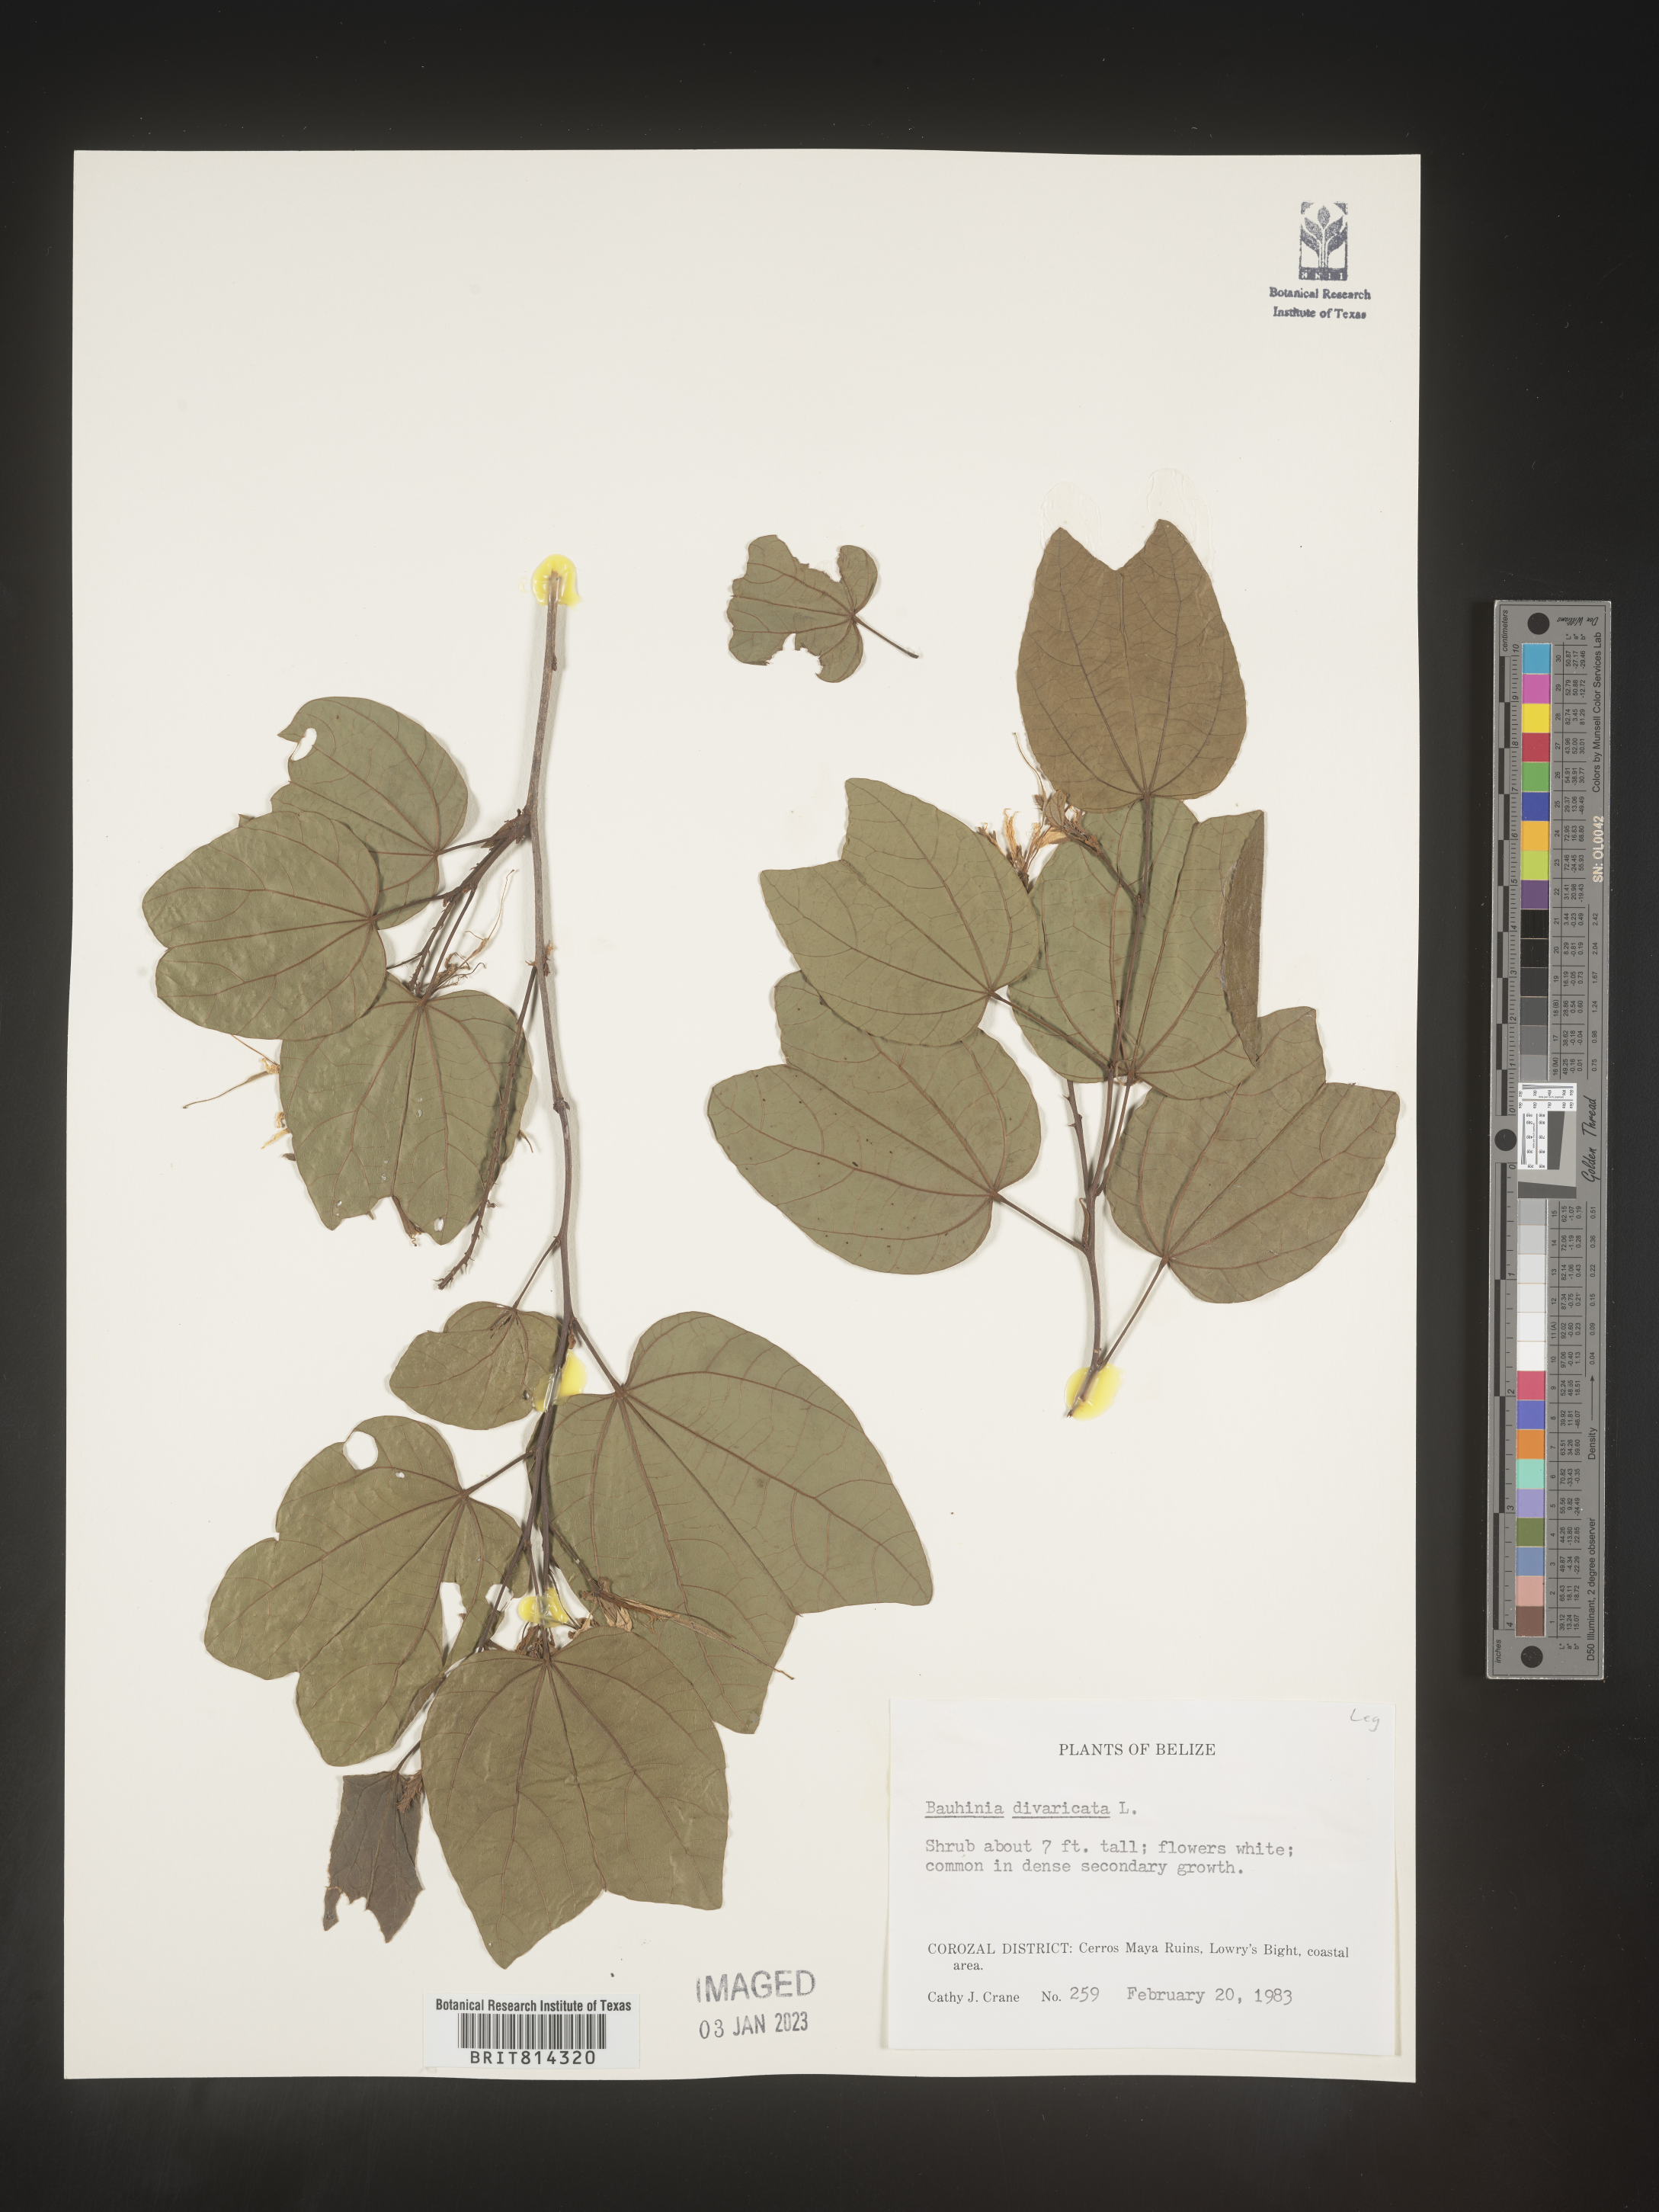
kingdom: Plantae
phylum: Tracheophyta
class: Magnoliopsida
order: Fabales
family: Fabaceae
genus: Bauhinia
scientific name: Bauhinia
